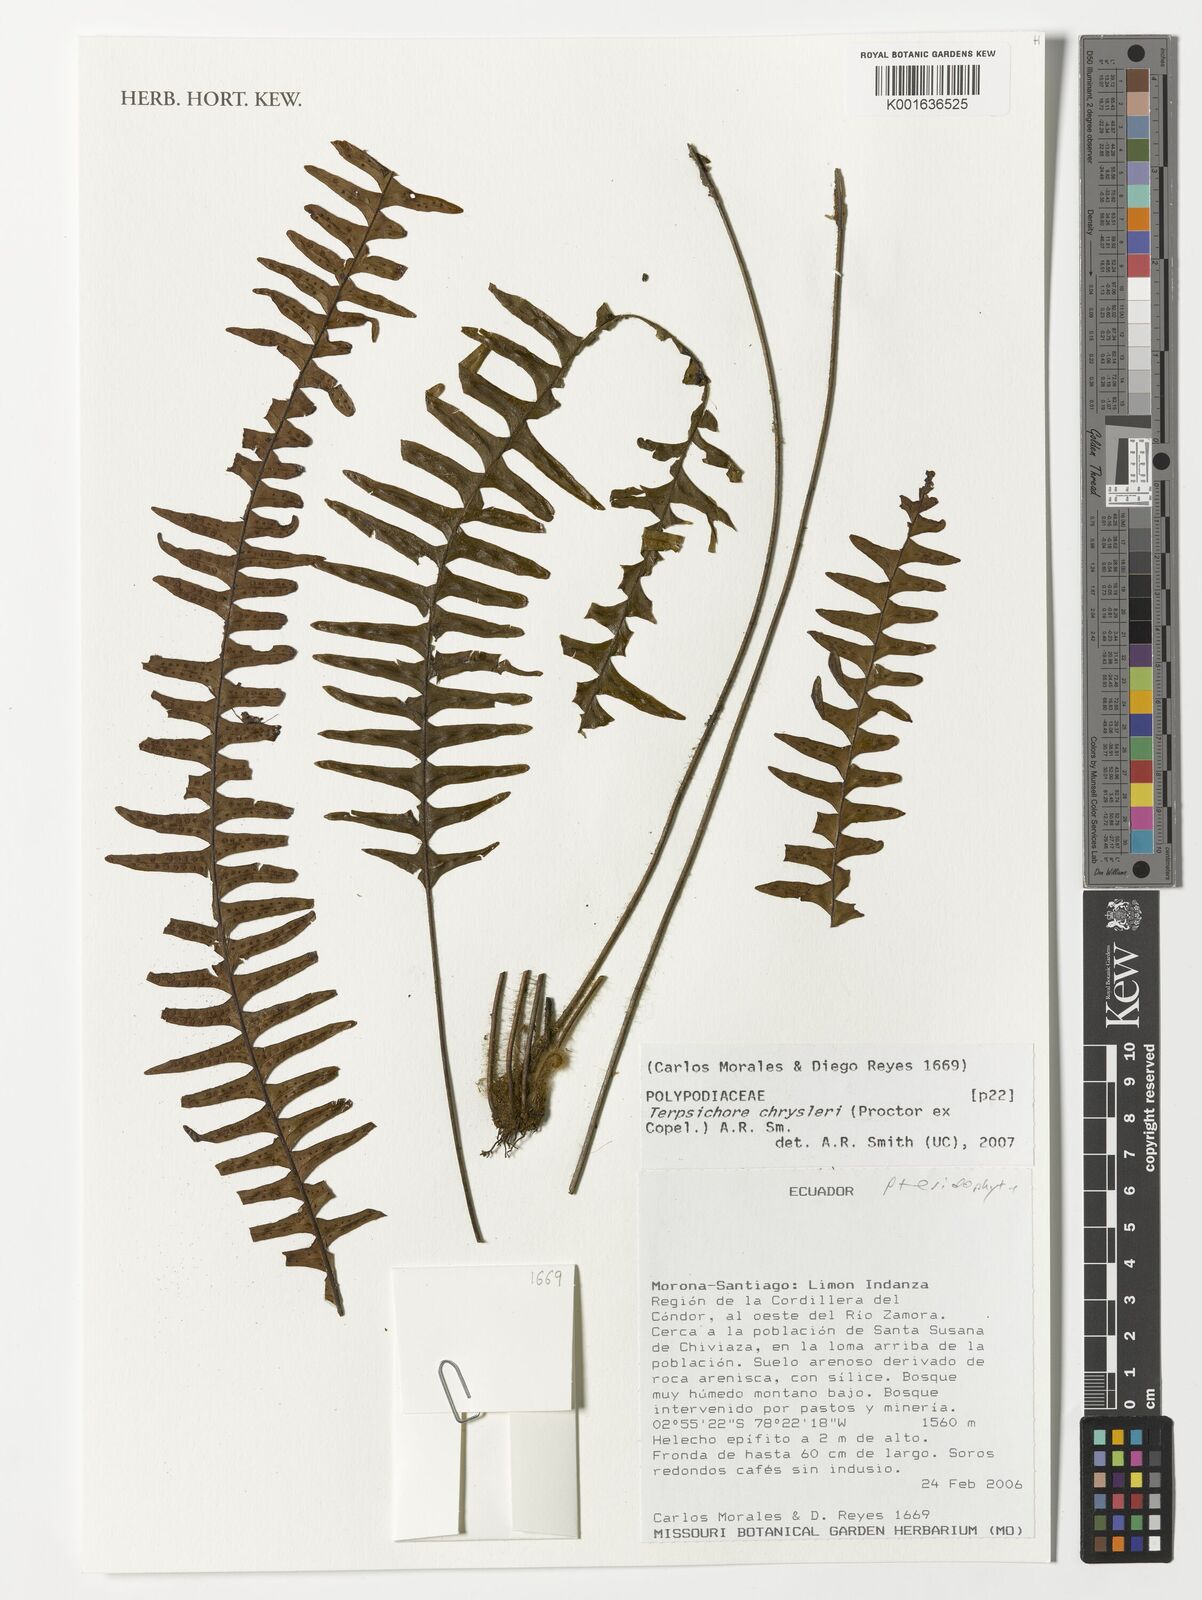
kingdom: Plantae
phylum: Tracheophyta
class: Polypodiopsida
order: Polypodiales
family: Polypodiaceae
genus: Terpsichore
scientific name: Terpsichore chrysleri
